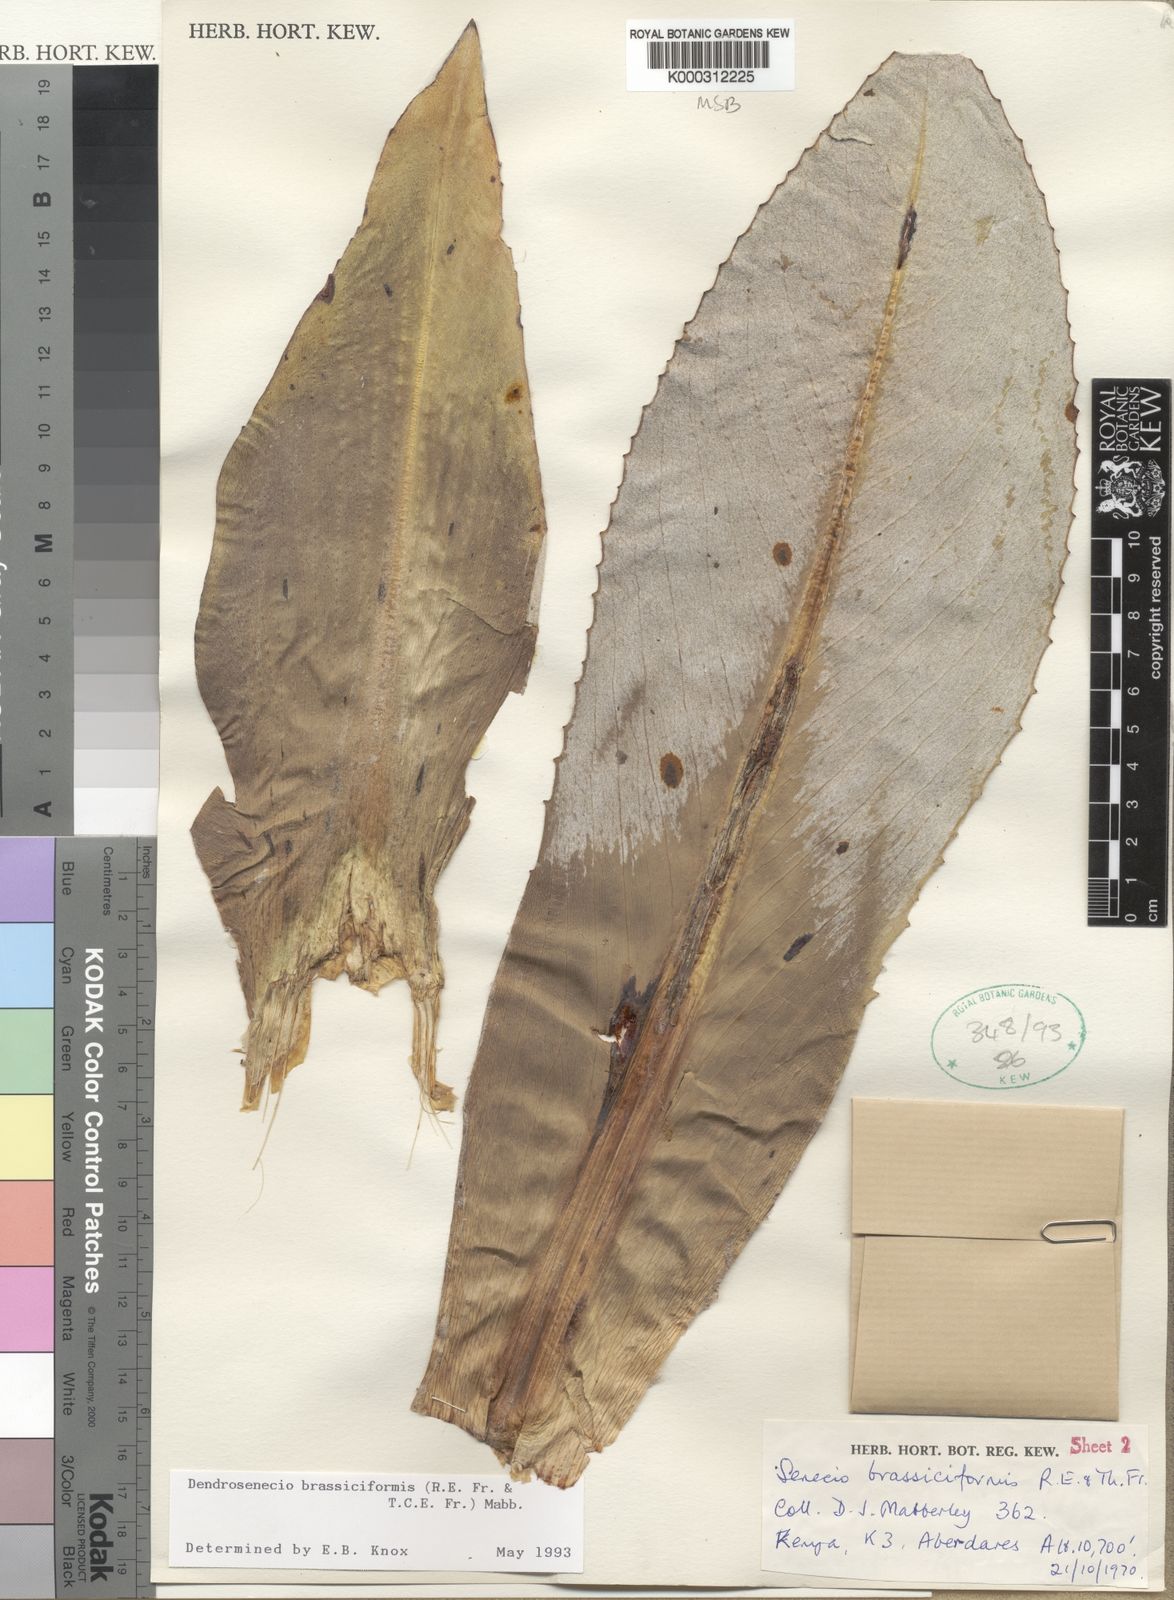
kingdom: Plantae
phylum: Tracheophyta
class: Magnoliopsida
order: Asterales
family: Asteraceae
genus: Dendrosenecio
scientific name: Dendrosenecio brassiciformis
